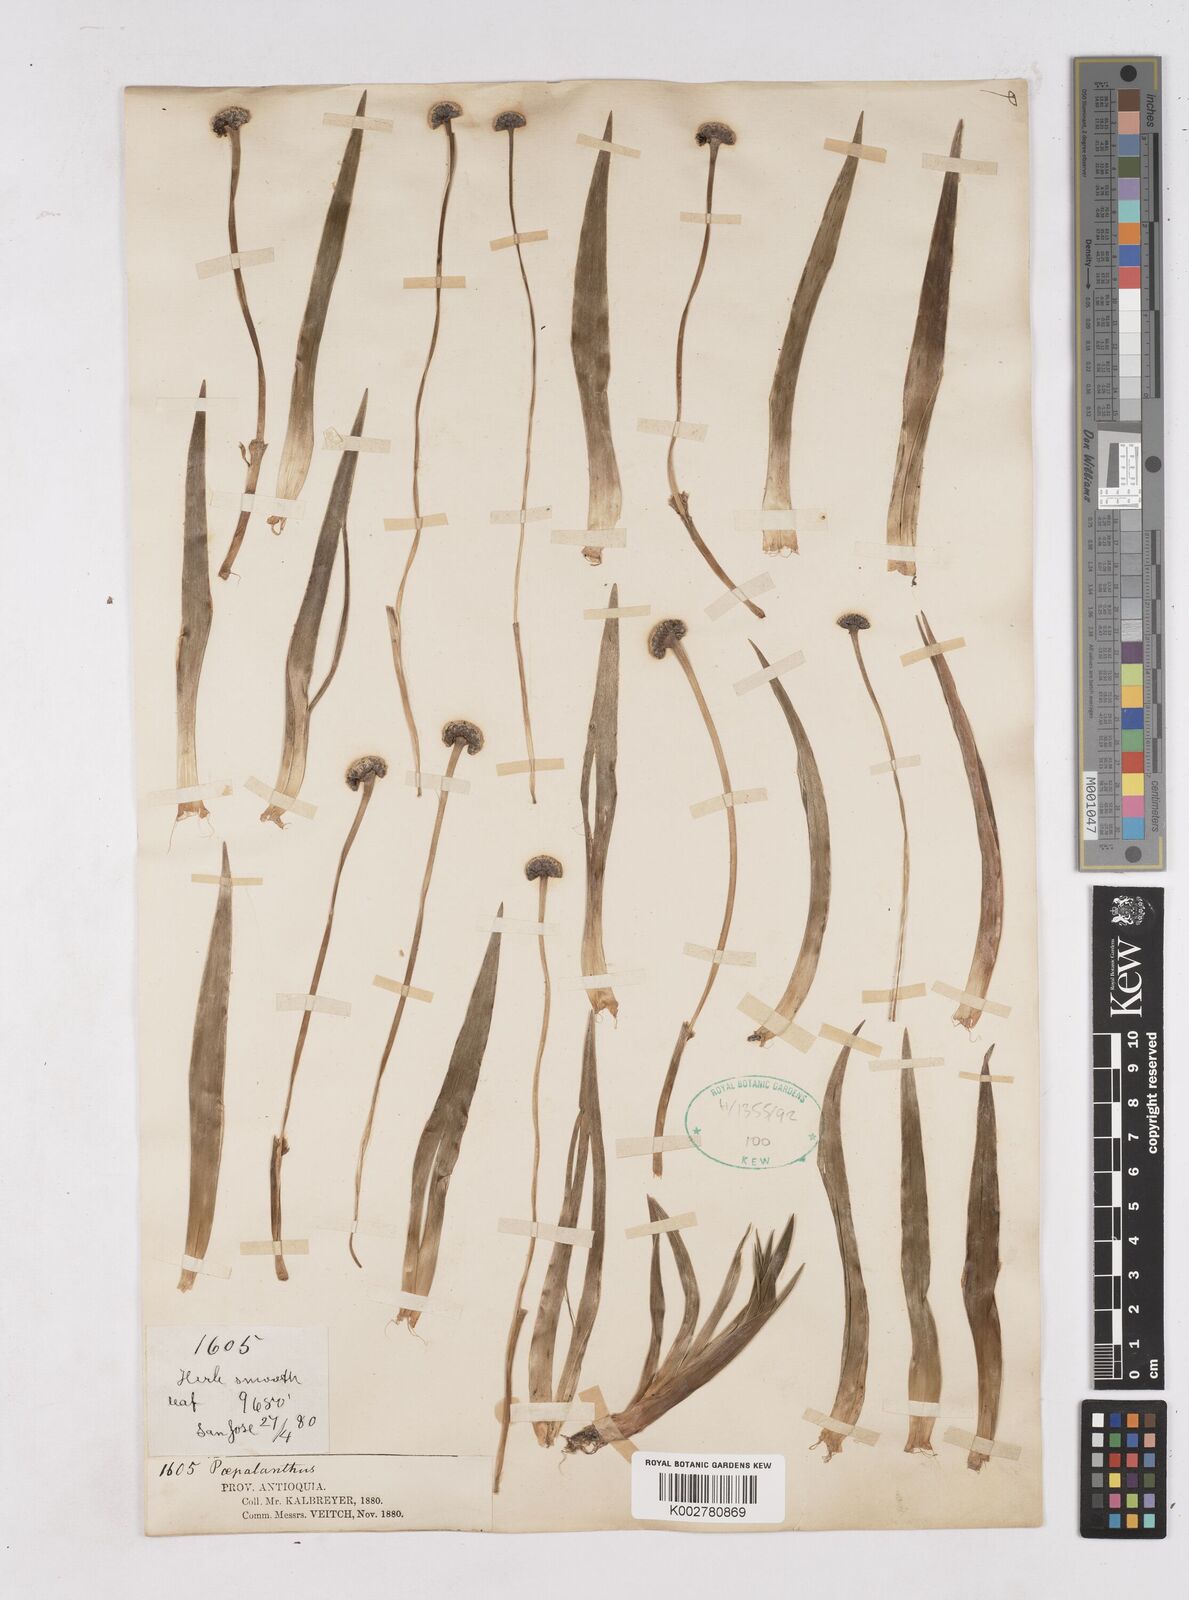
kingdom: Plantae
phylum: Tracheophyta
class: Liliopsida
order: Poales
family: Eriocaulaceae
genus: Paepalanthus
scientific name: Paepalanthus
